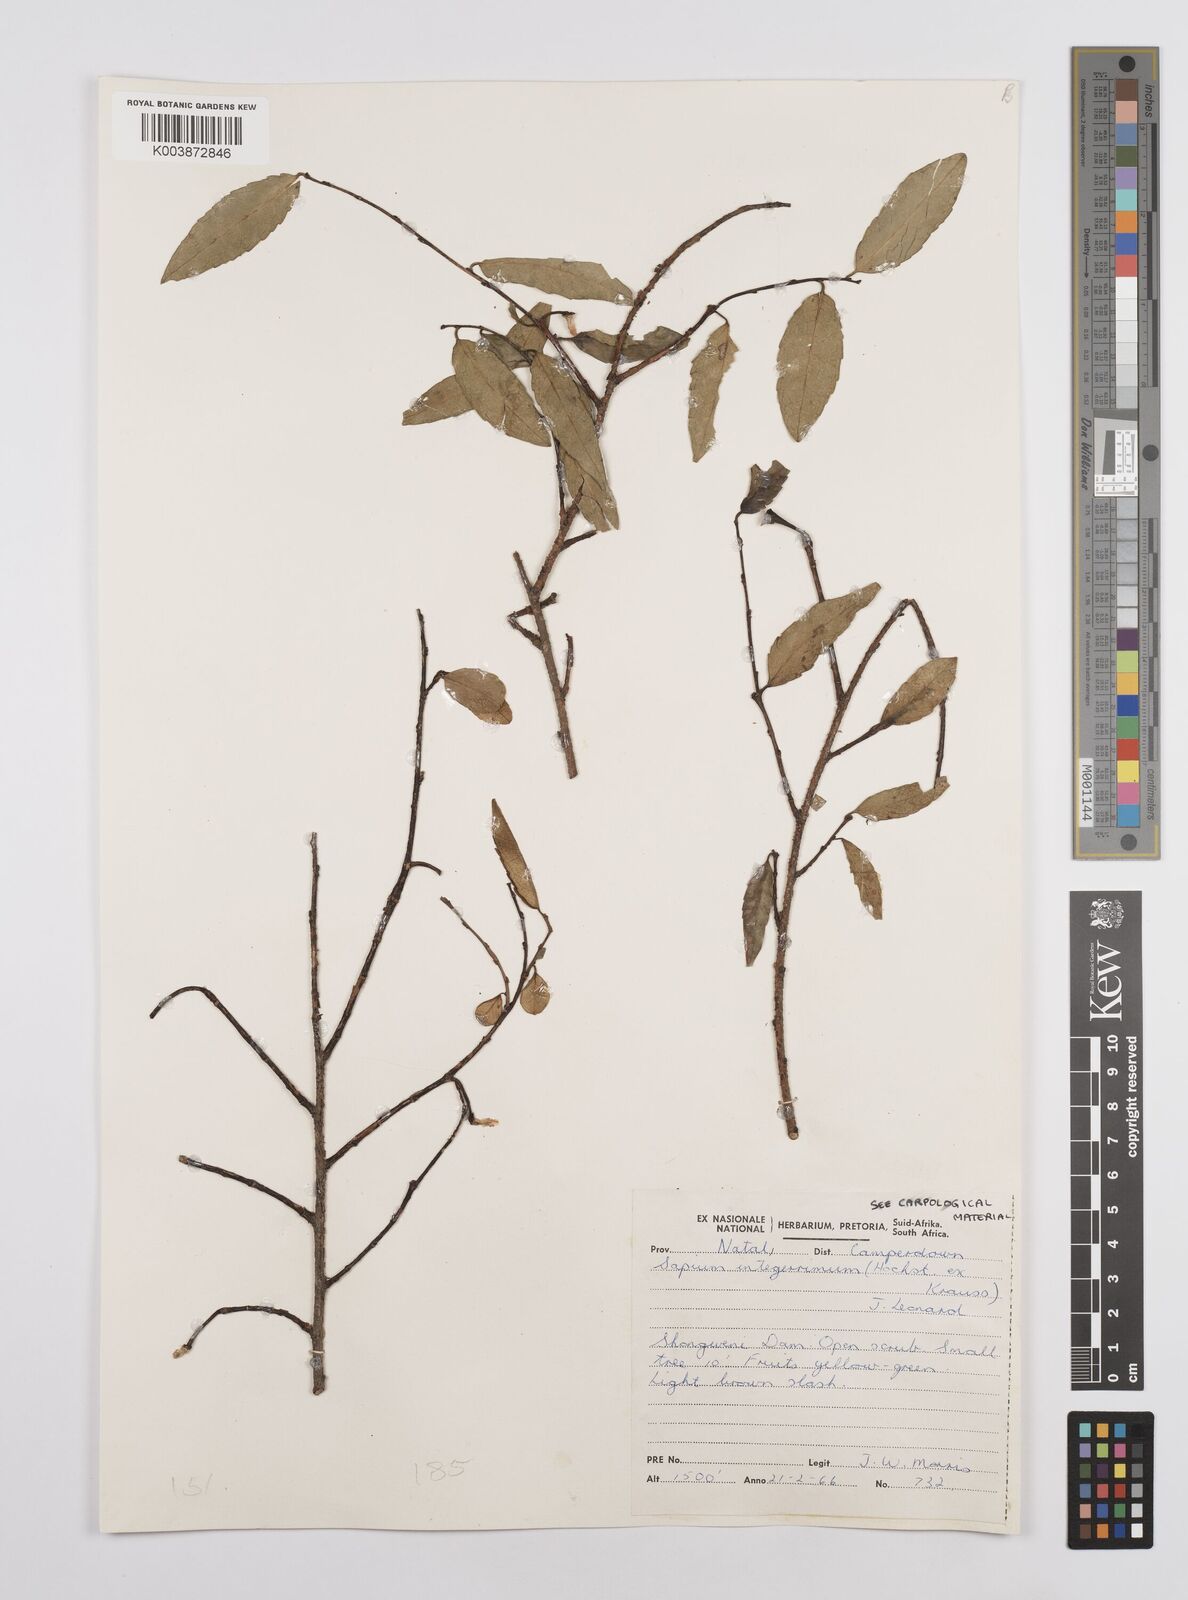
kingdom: Plantae
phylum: Tracheophyta
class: Magnoliopsida
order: Malpighiales
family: Euphorbiaceae
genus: Sclerocroton
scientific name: Sclerocroton integerrimus
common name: Duiker berry
